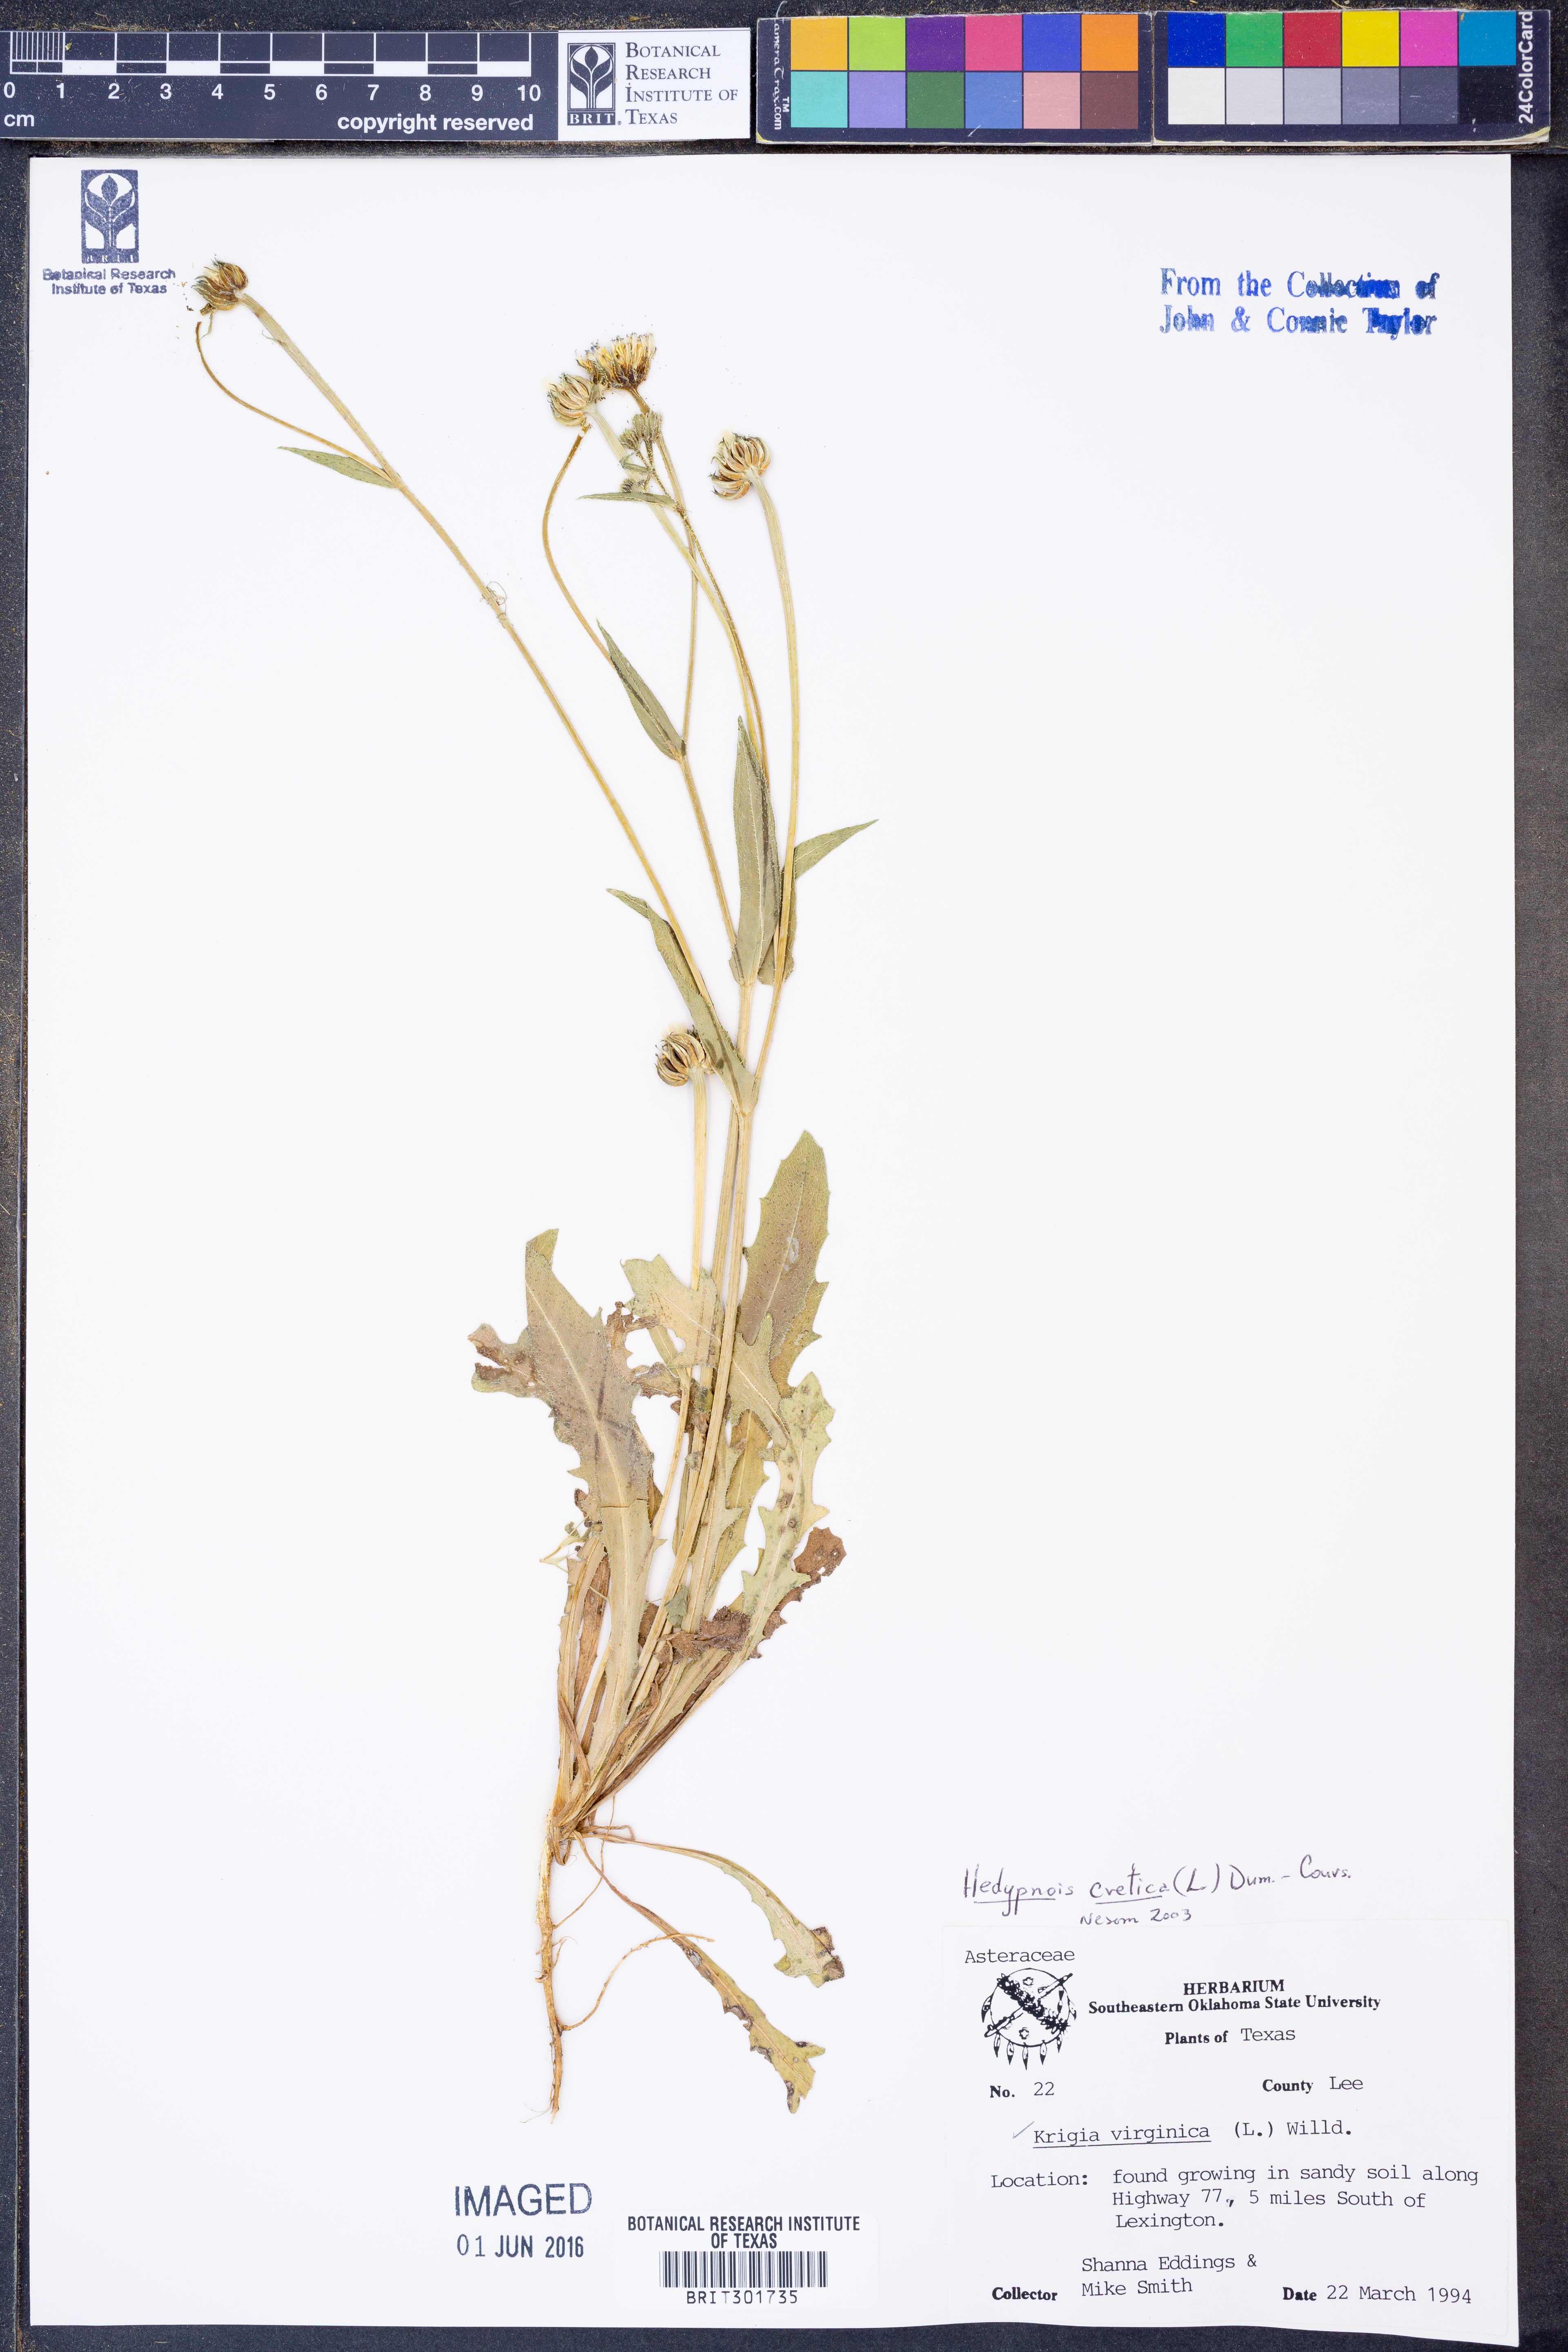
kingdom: Plantae
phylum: Tracheophyta
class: Magnoliopsida
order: Asterales
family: Asteraceae
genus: Hedypnois
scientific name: Hedypnois cretica
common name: Scaly hawkbit
